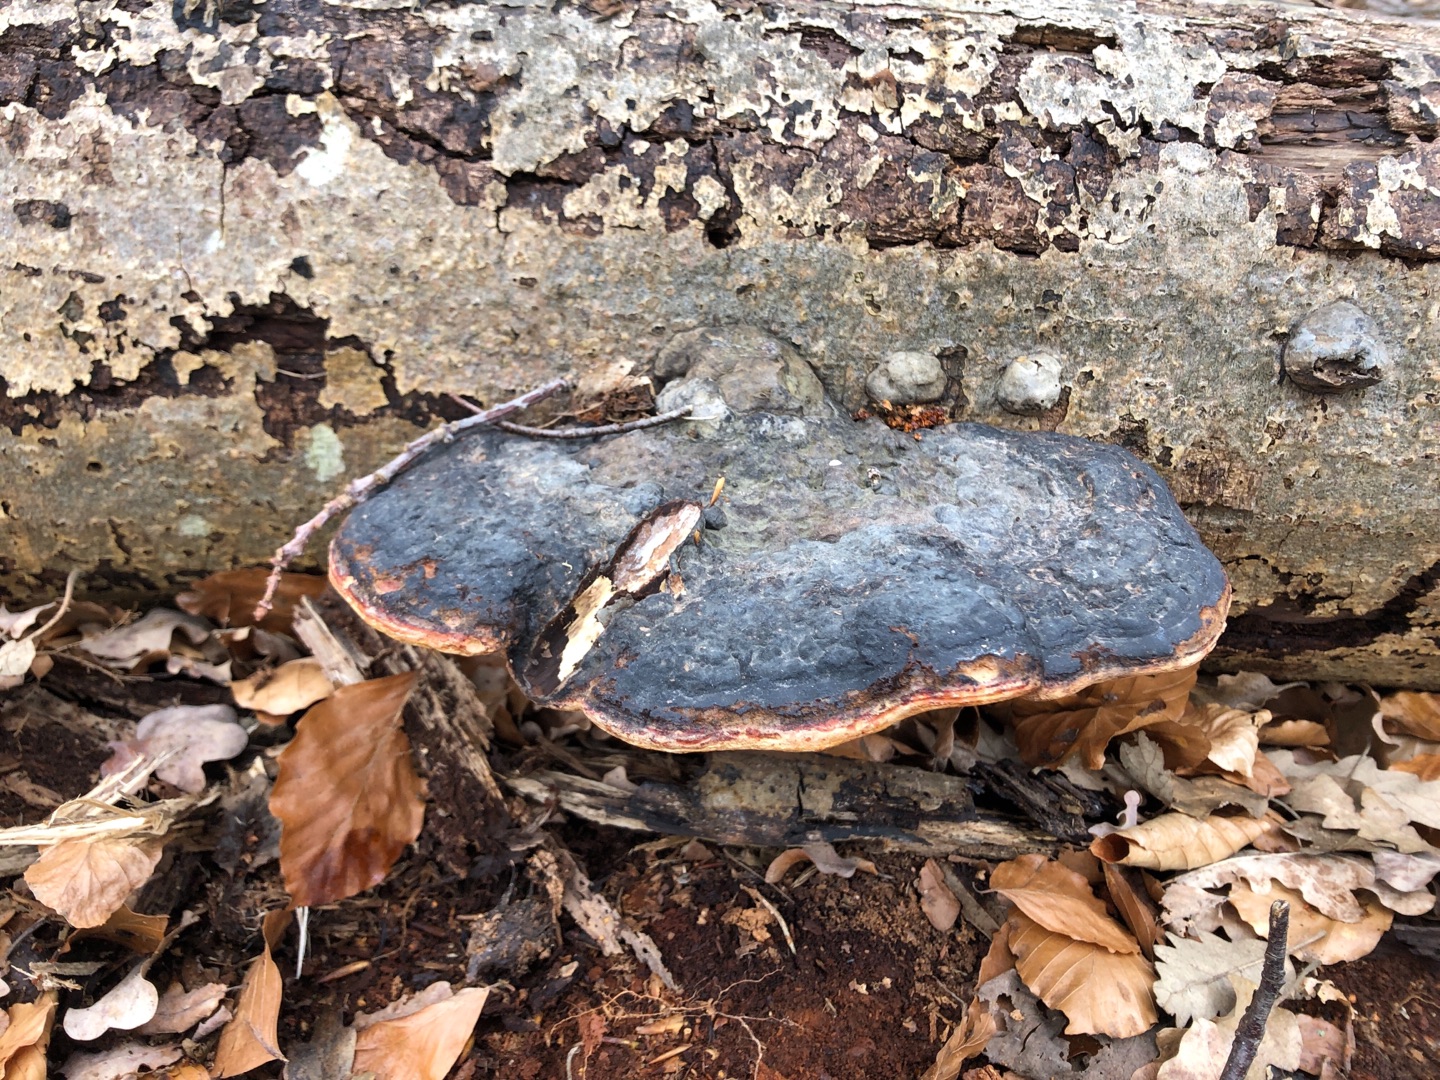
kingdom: Fungi
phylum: Basidiomycota
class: Agaricomycetes
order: Polyporales
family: Fomitopsidaceae
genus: Fomitopsis
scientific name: Fomitopsis pinicola
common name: Randbæltet hovporesvamp
